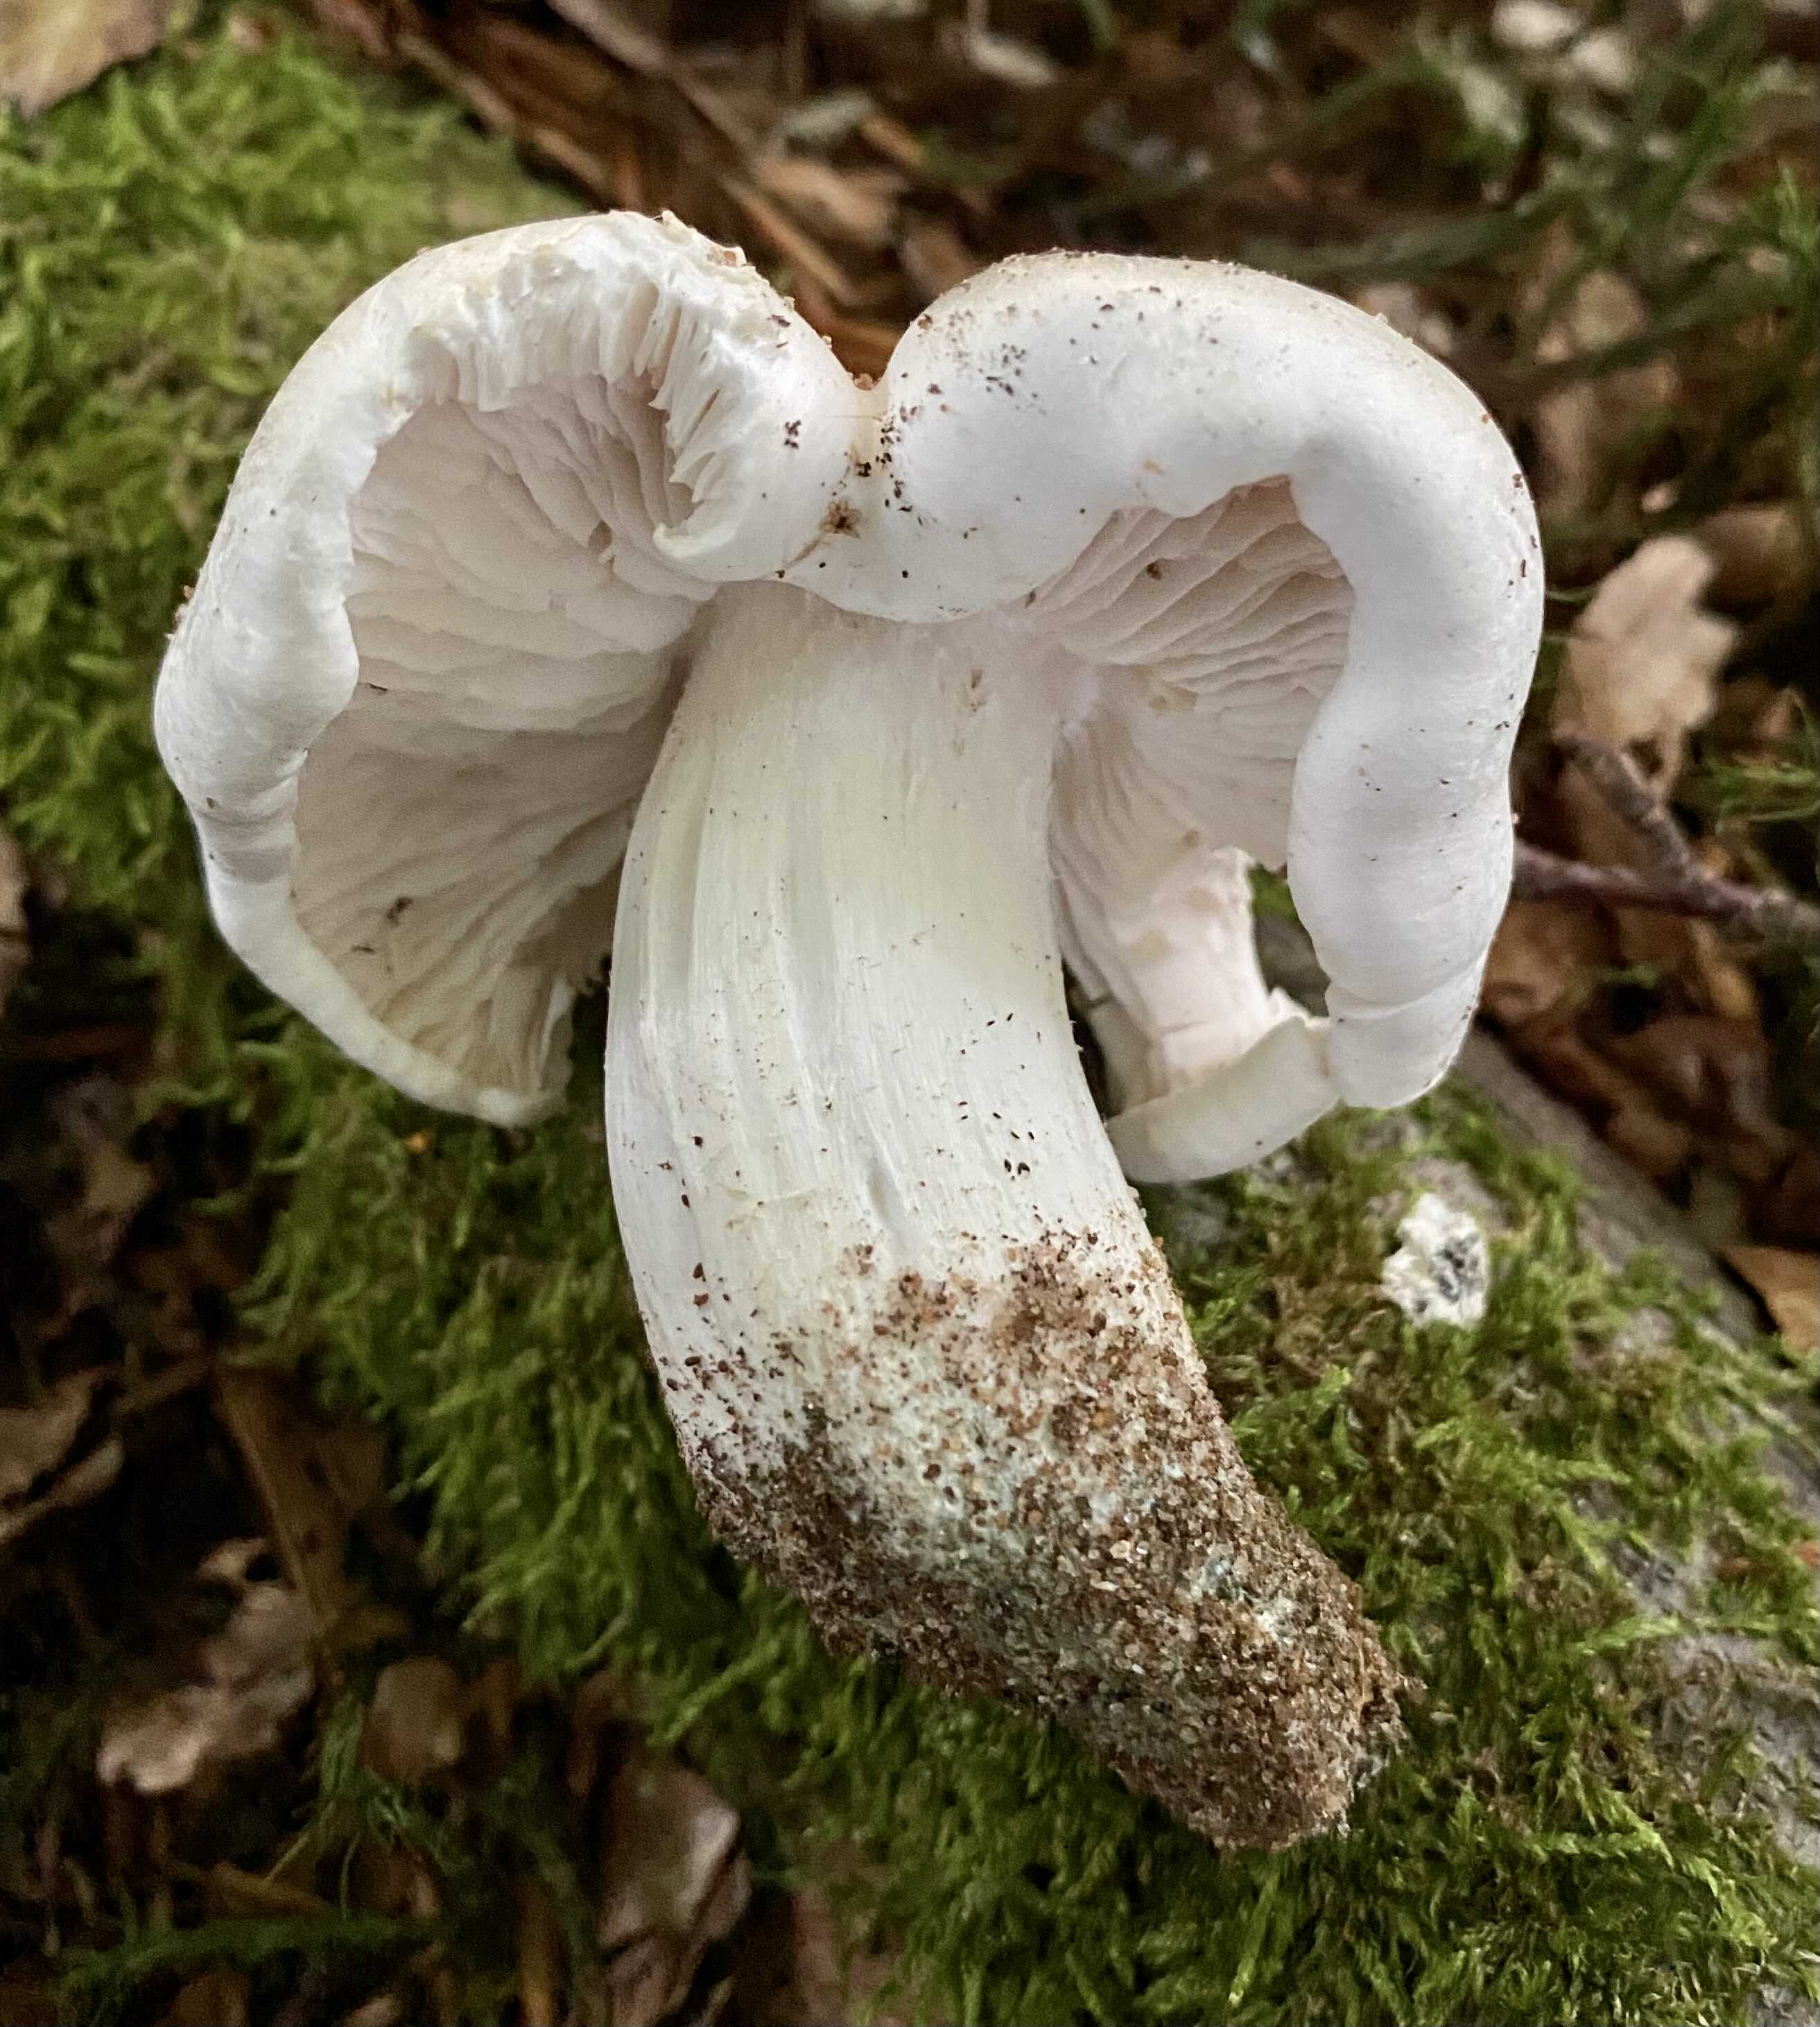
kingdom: Fungi
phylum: Basidiomycota
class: Agaricomycetes
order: Agaricales
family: Tricholomataceae
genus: Tricholoma
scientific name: Tricholoma columbetta
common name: silke-ridderhat
